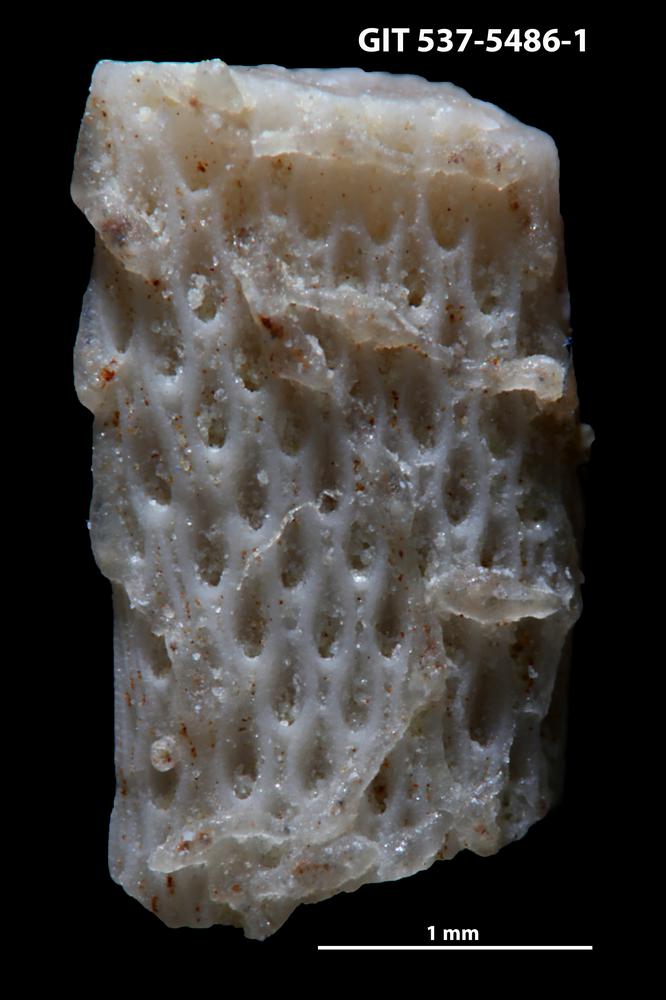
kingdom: Animalia
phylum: Bryozoa
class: Stenolaemata
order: Cyclostomatida
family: Corynotrypidae
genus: Corynotrypa
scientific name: Corynotrypa delicatula
